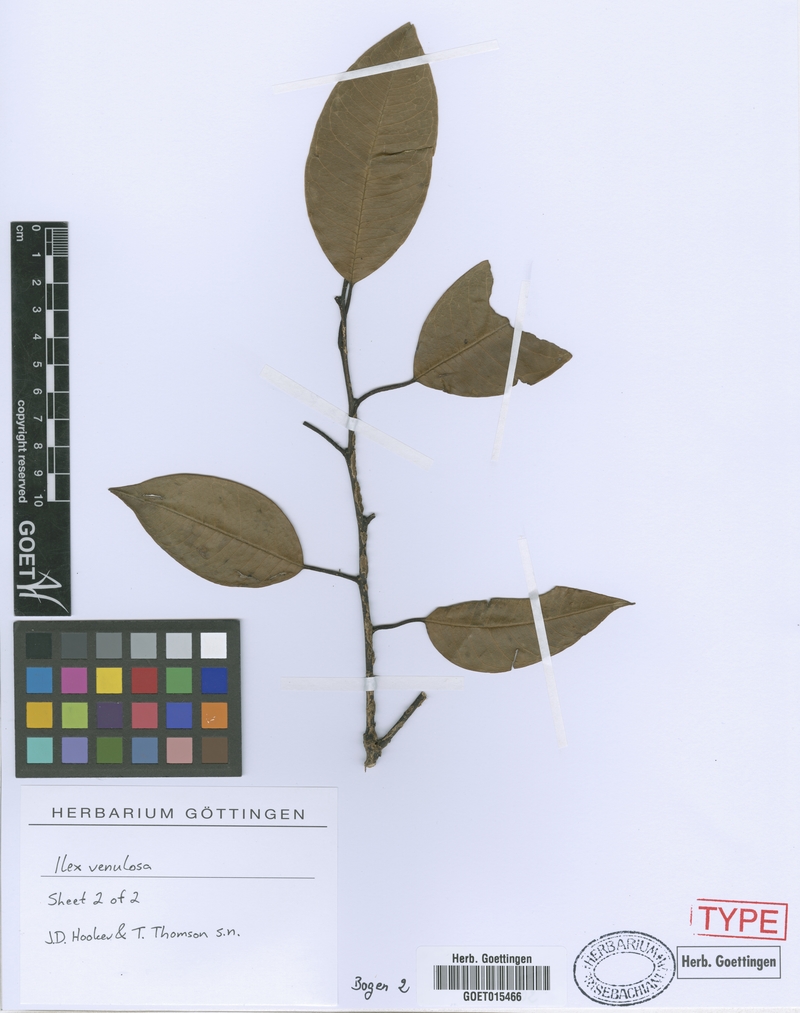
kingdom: Plantae
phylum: Tracheophyta
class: Magnoliopsida
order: Aquifoliales
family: Aquifoliaceae
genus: Ilex
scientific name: Ilex venulosa
